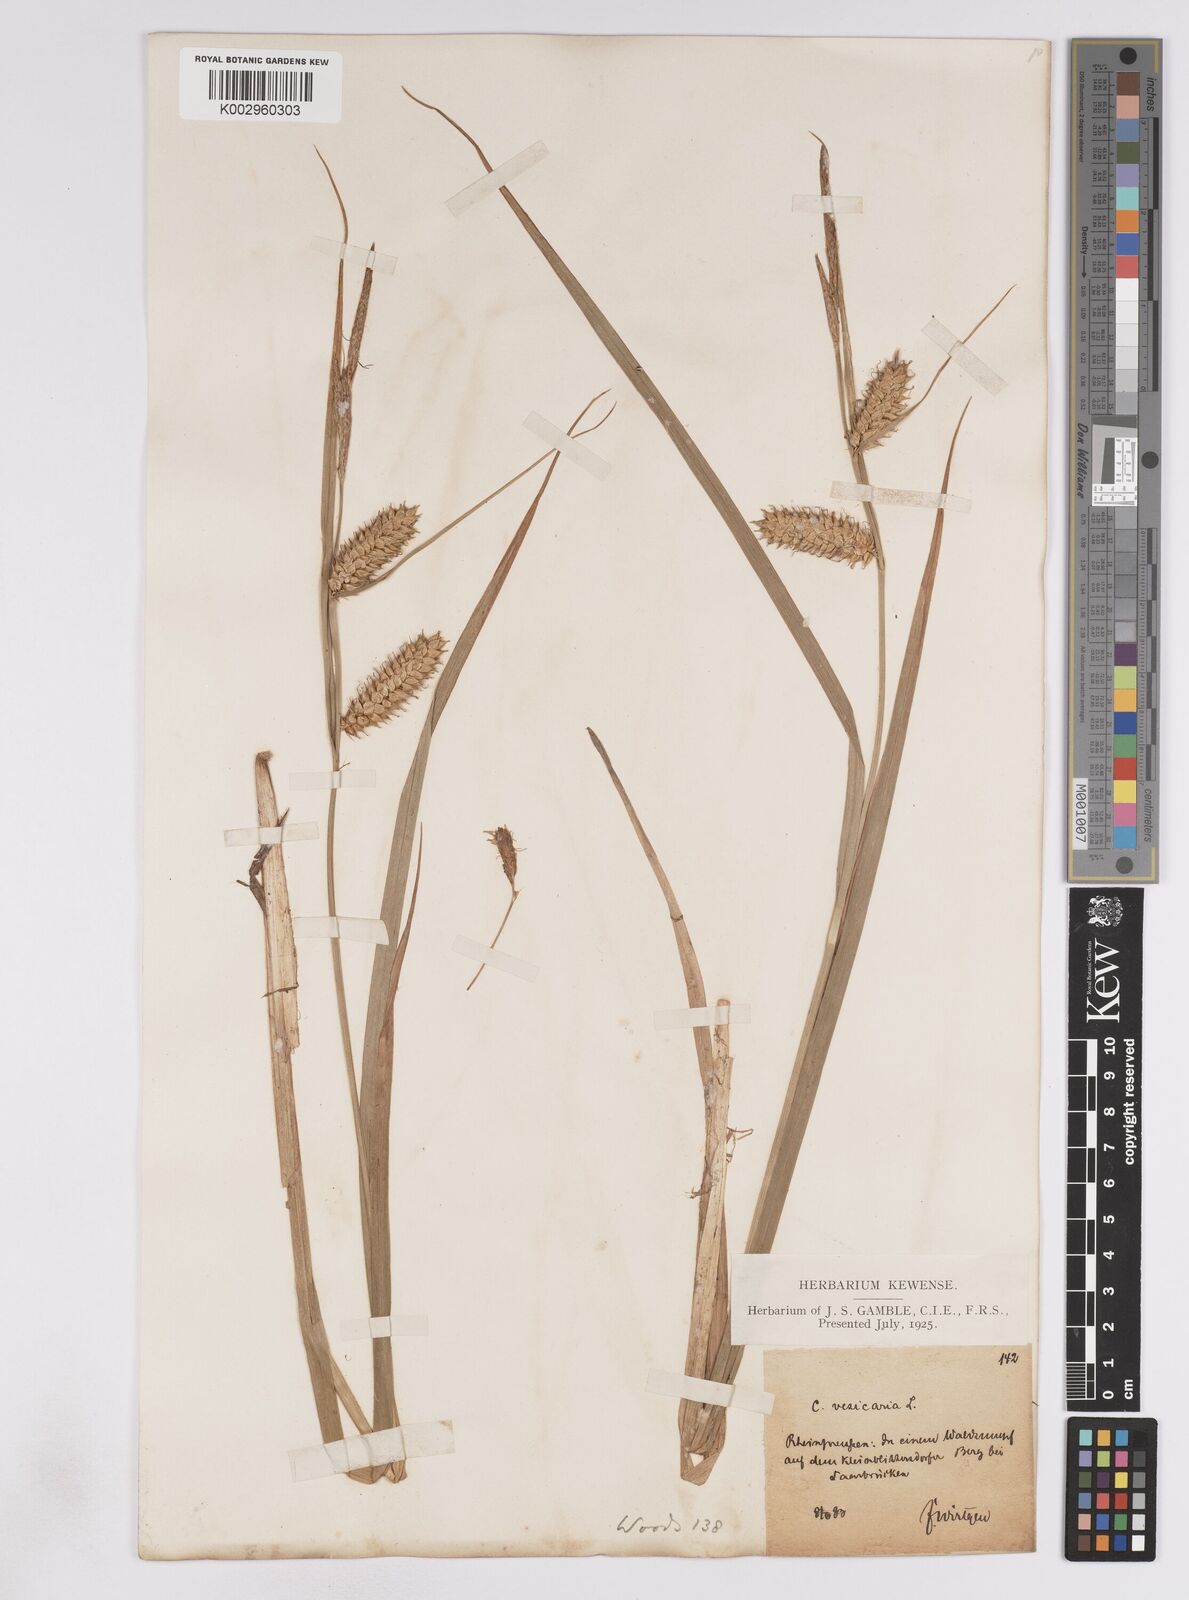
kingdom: Plantae
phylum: Tracheophyta
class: Liliopsida
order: Poales
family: Cyperaceae
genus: Carex
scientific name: Carex vesicaria
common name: Bladder-sedge
